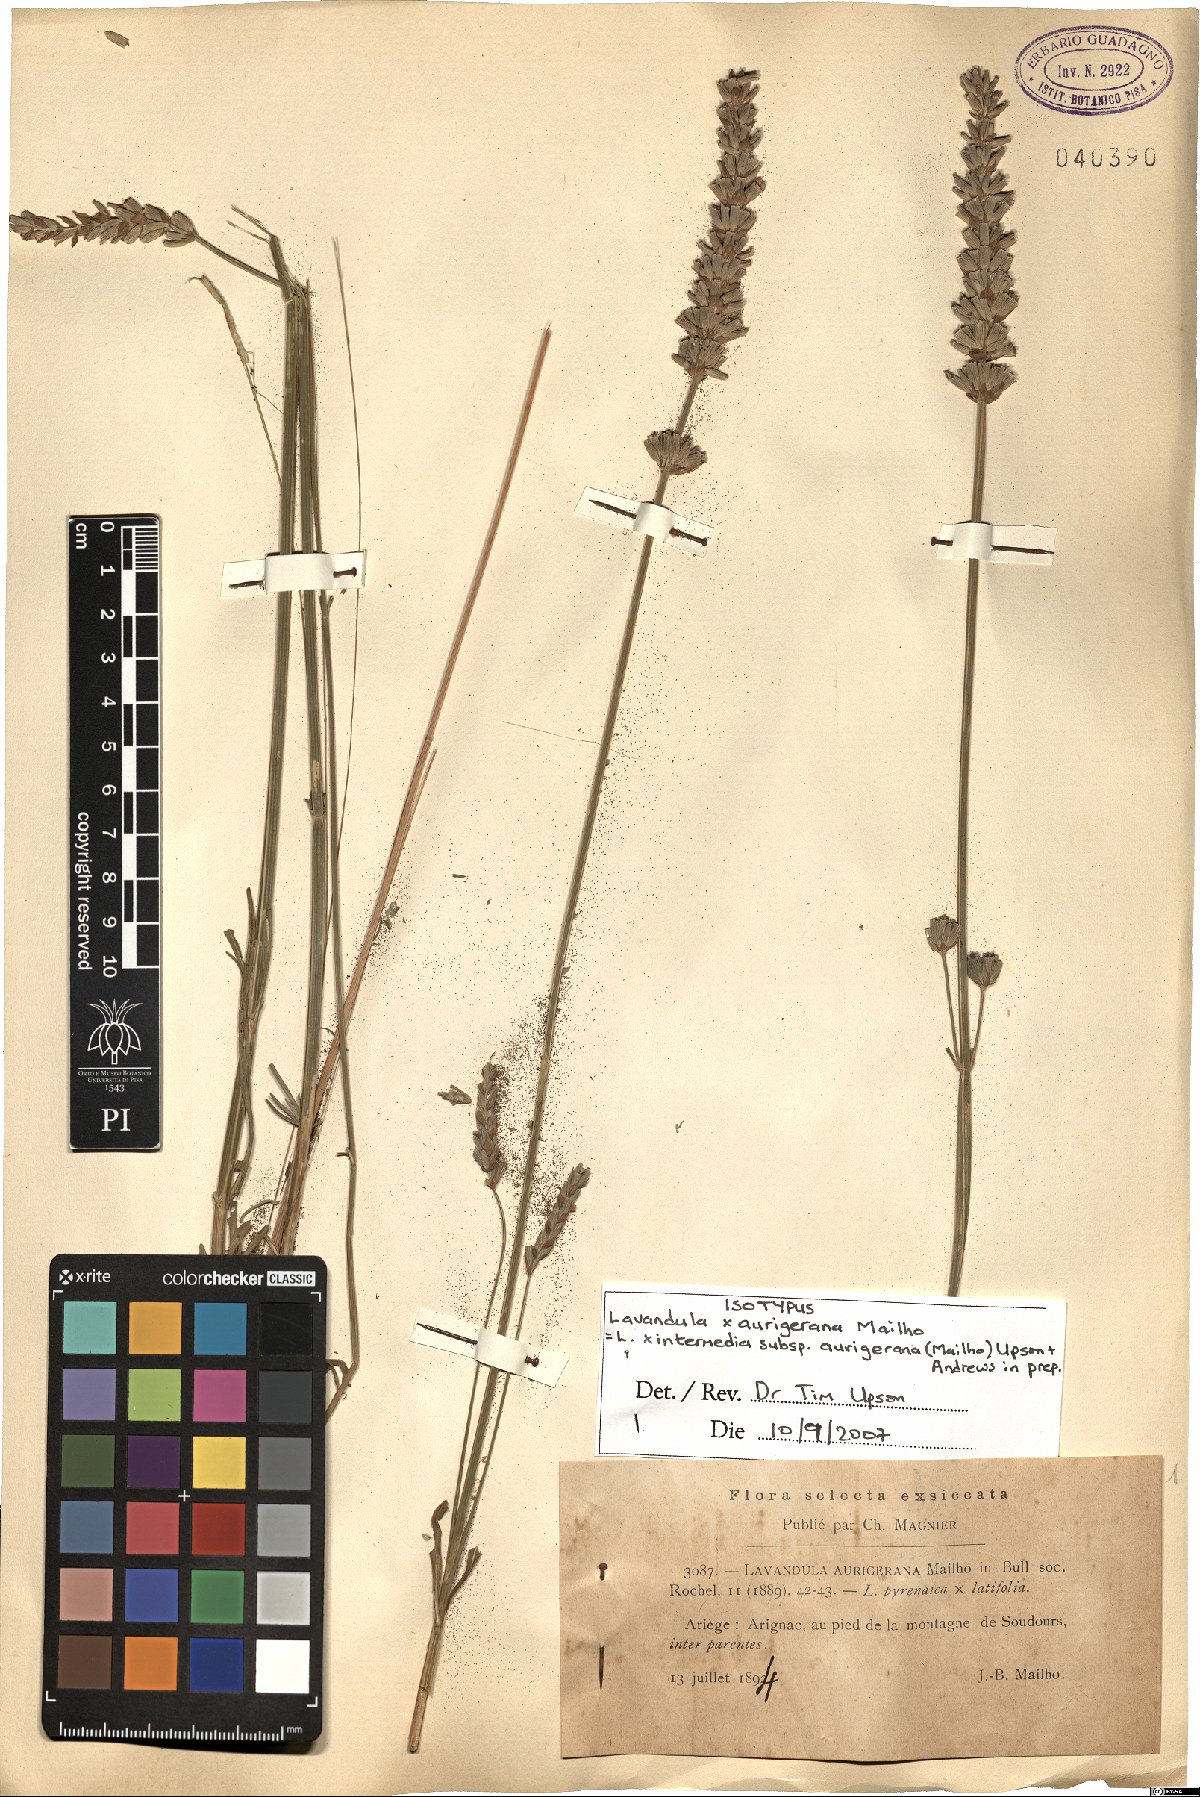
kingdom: Plantae
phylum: Tracheophyta
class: Magnoliopsida
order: Lamiales
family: Lamiaceae
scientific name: Lamiaceae
